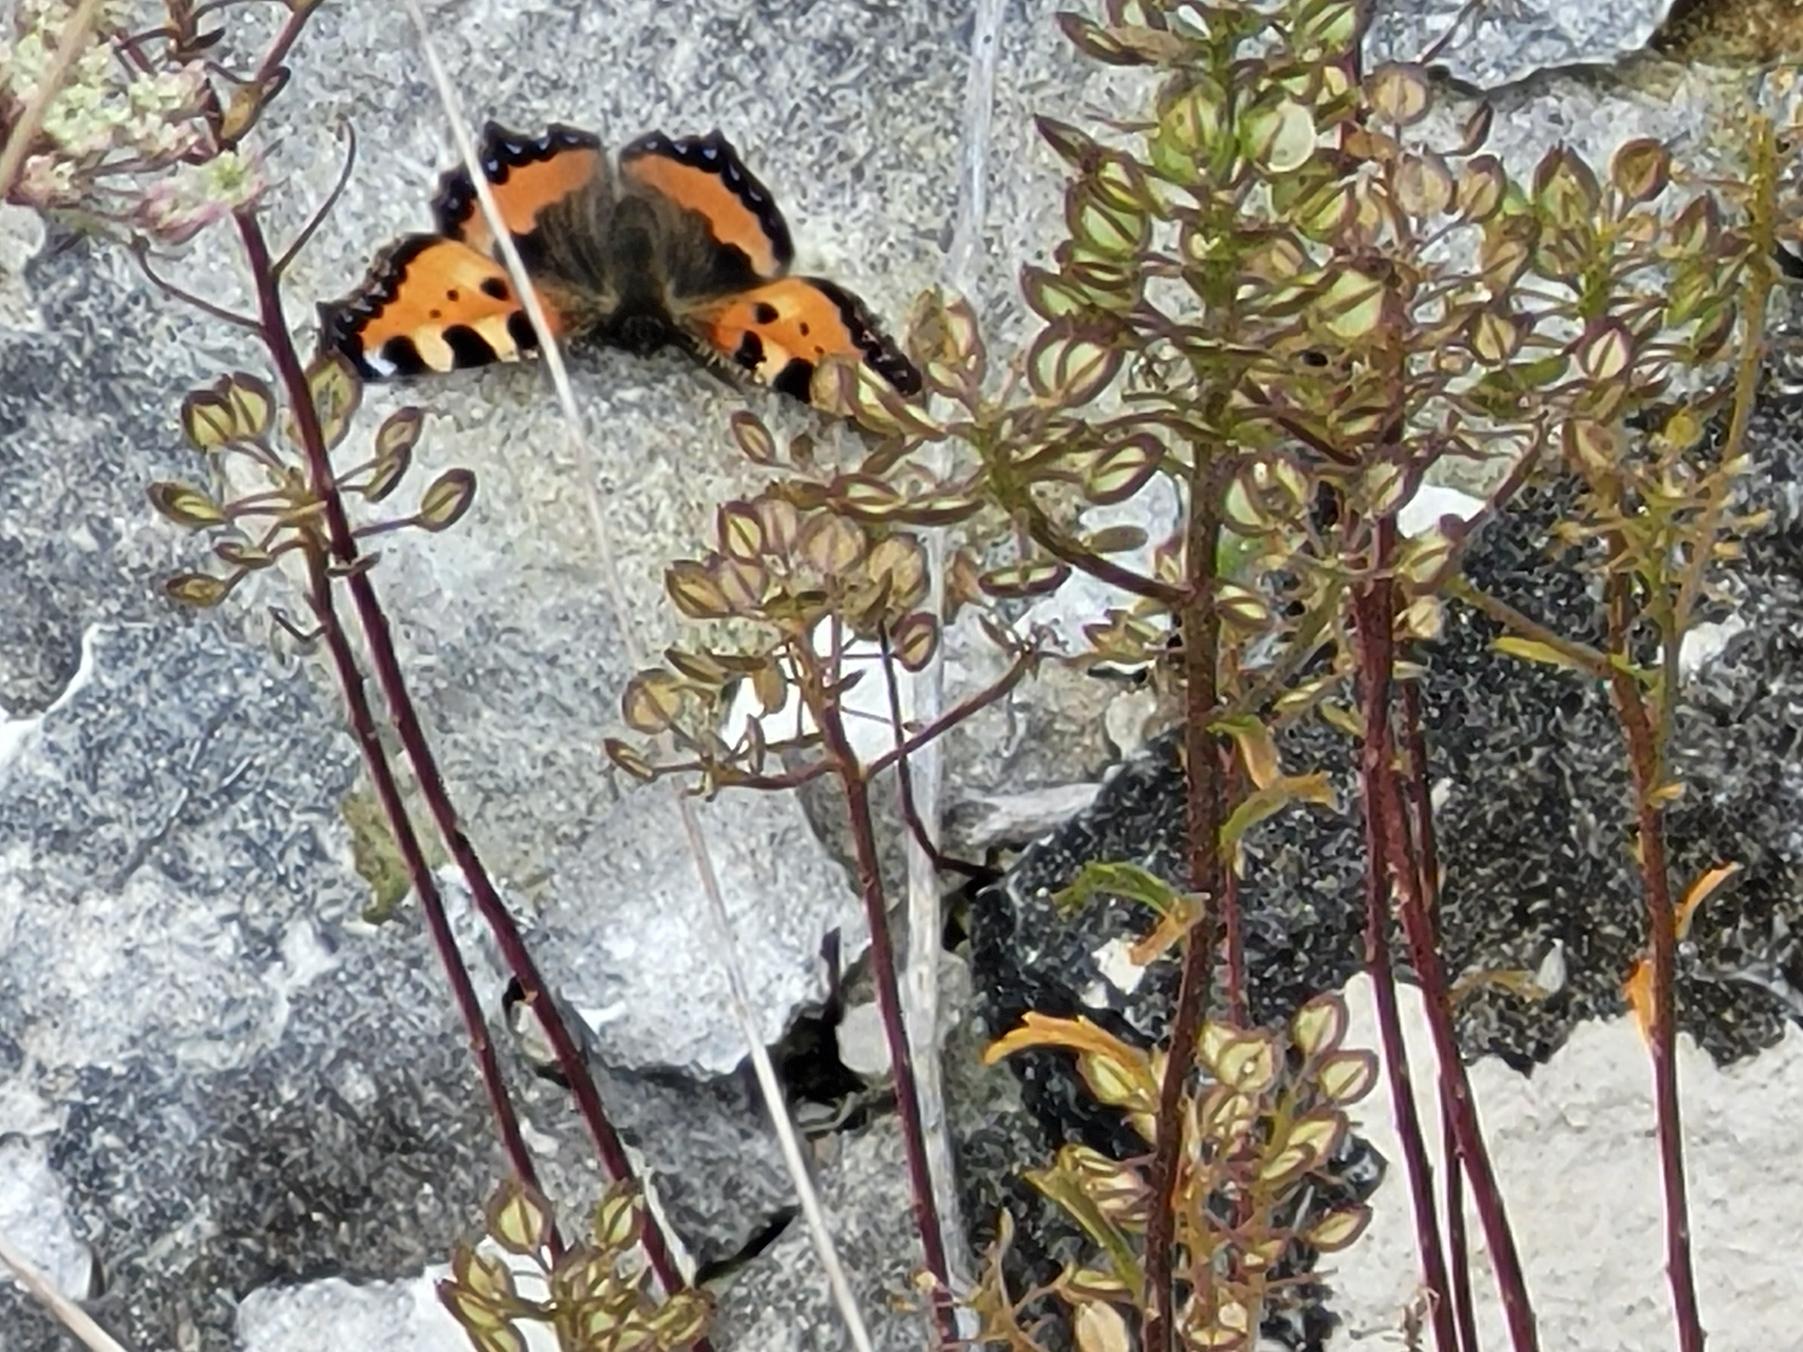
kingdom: Animalia
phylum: Arthropoda
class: Insecta
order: Lepidoptera
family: Nymphalidae
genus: Aglais
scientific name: Aglais urticae
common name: Nældens takvinge
